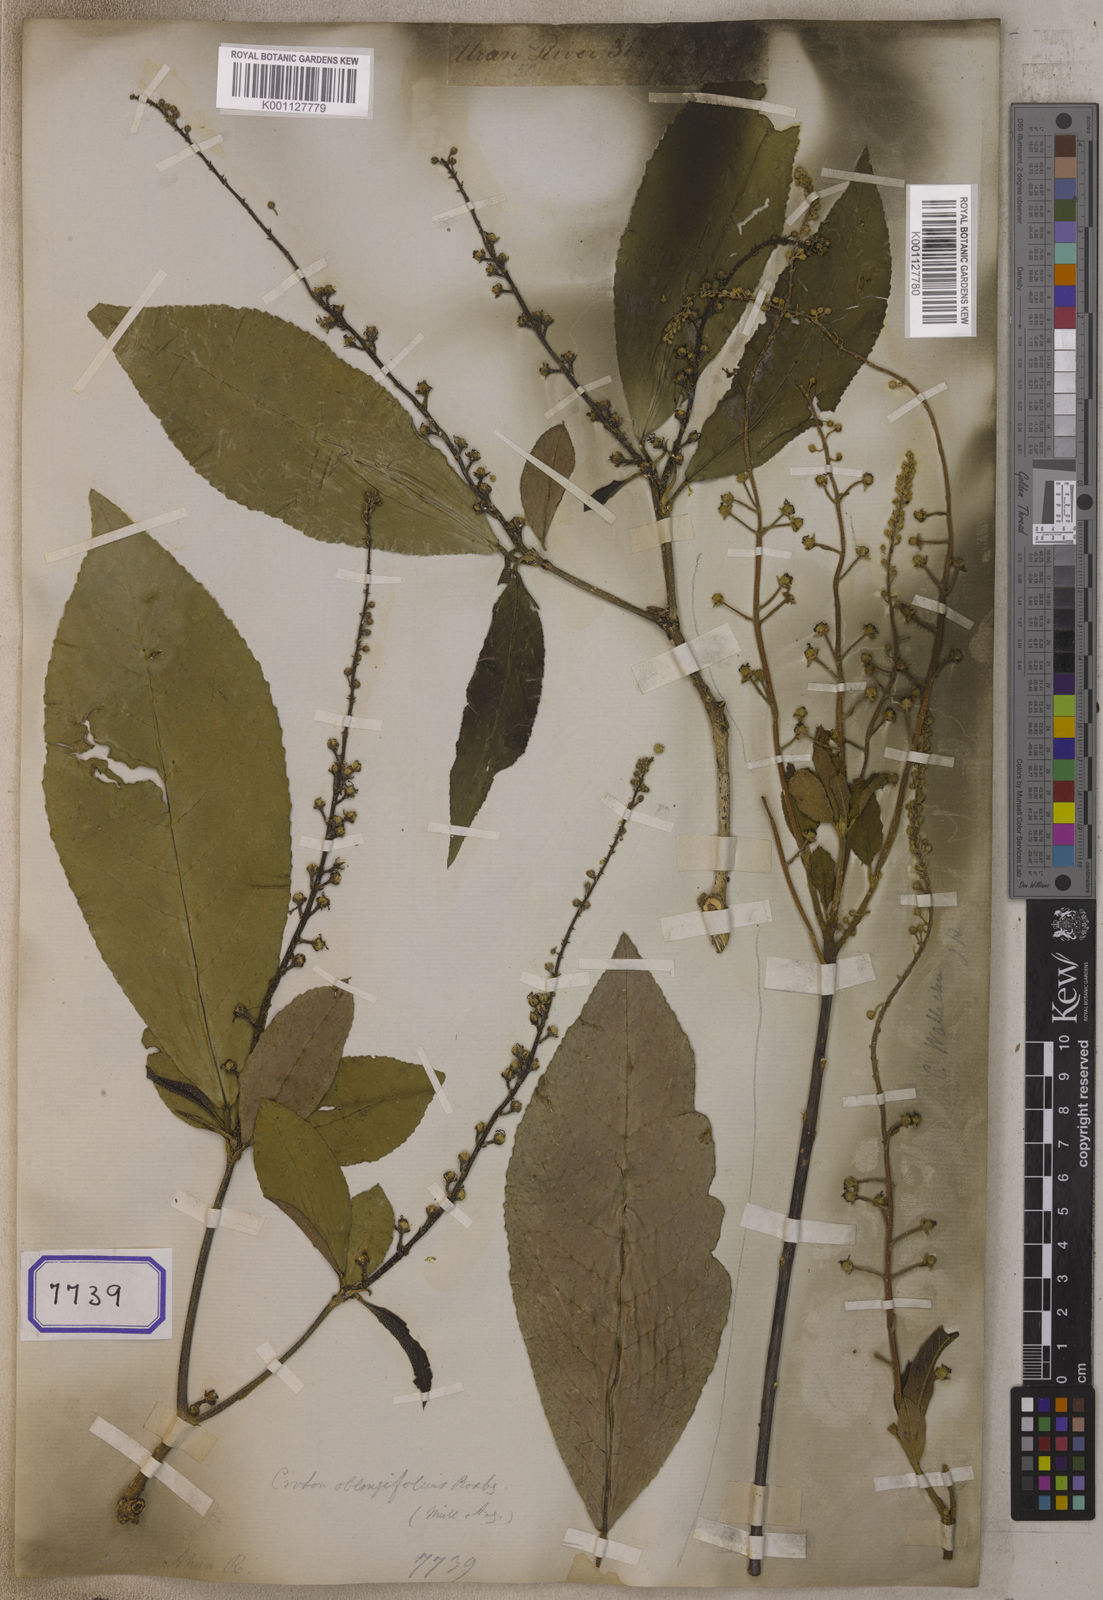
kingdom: Plantae
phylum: Tracheophyta
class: Magnoliopsida
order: Malpighiales
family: Euphorbiaceae
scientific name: Euphorbiaceae
